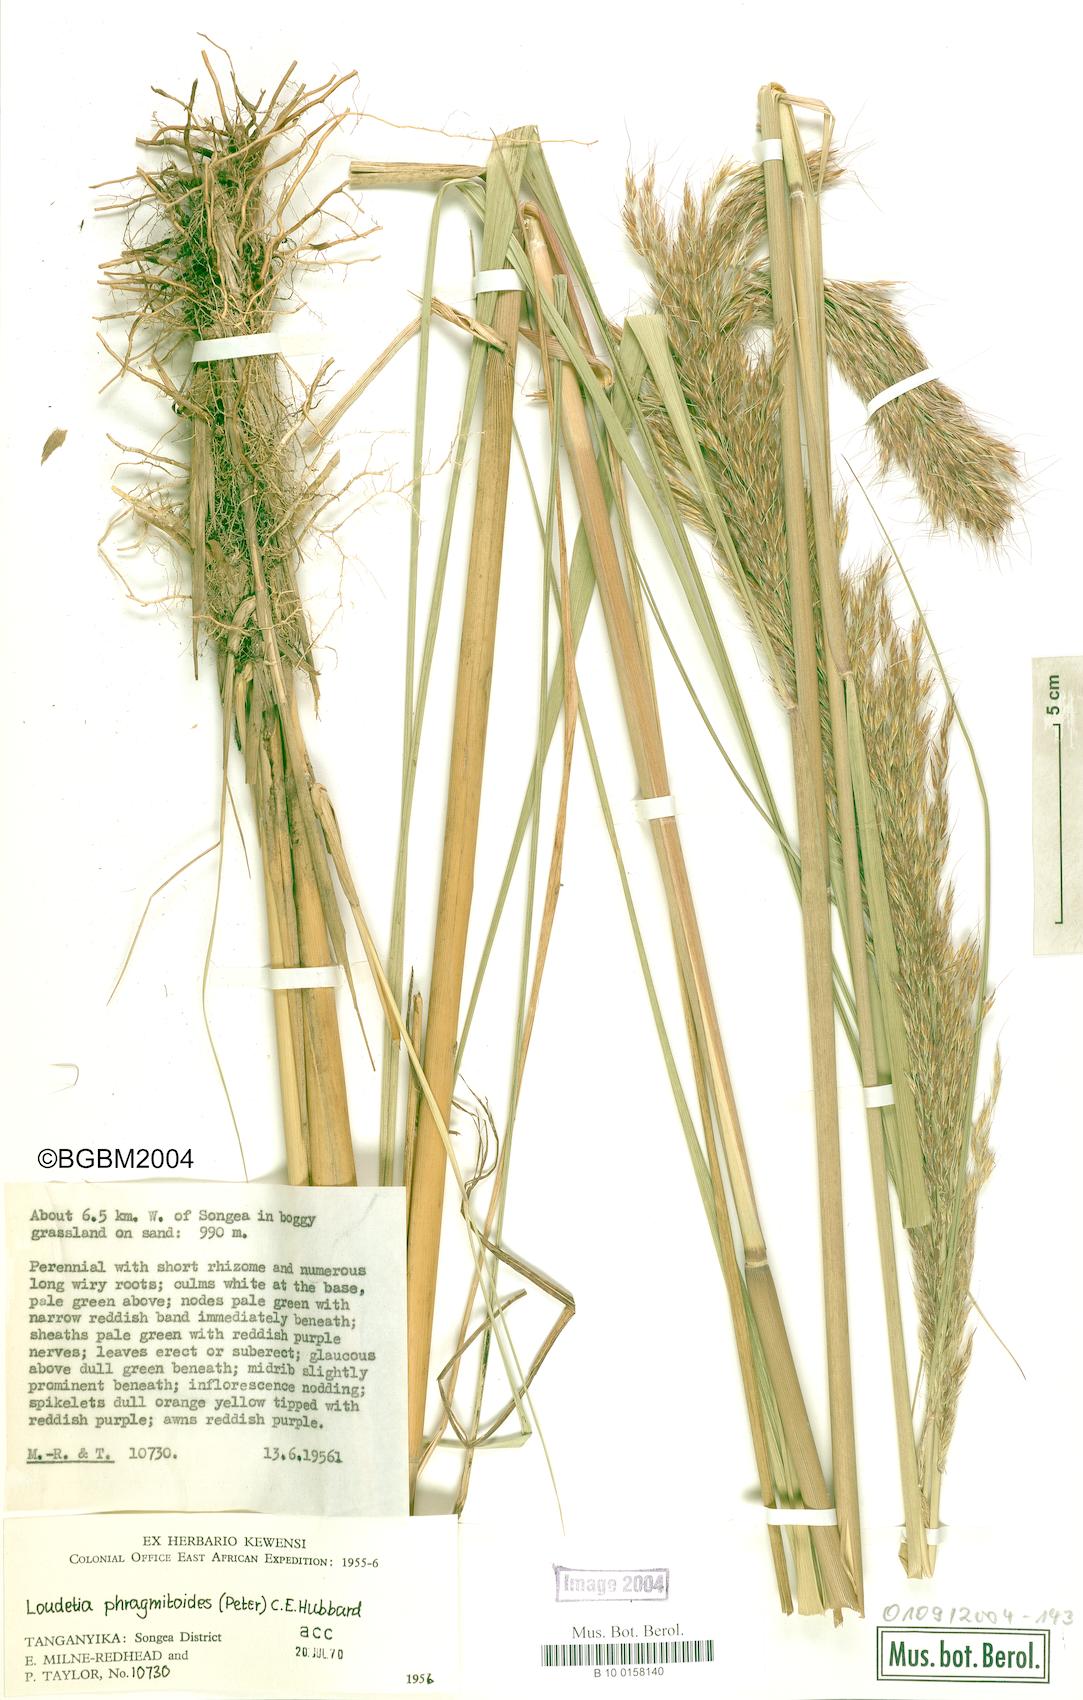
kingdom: Plantae
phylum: Tracheophyta
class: Liliopsida
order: Poales
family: Poaceae
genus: Loudetia
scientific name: Loudetia phragmitoides
